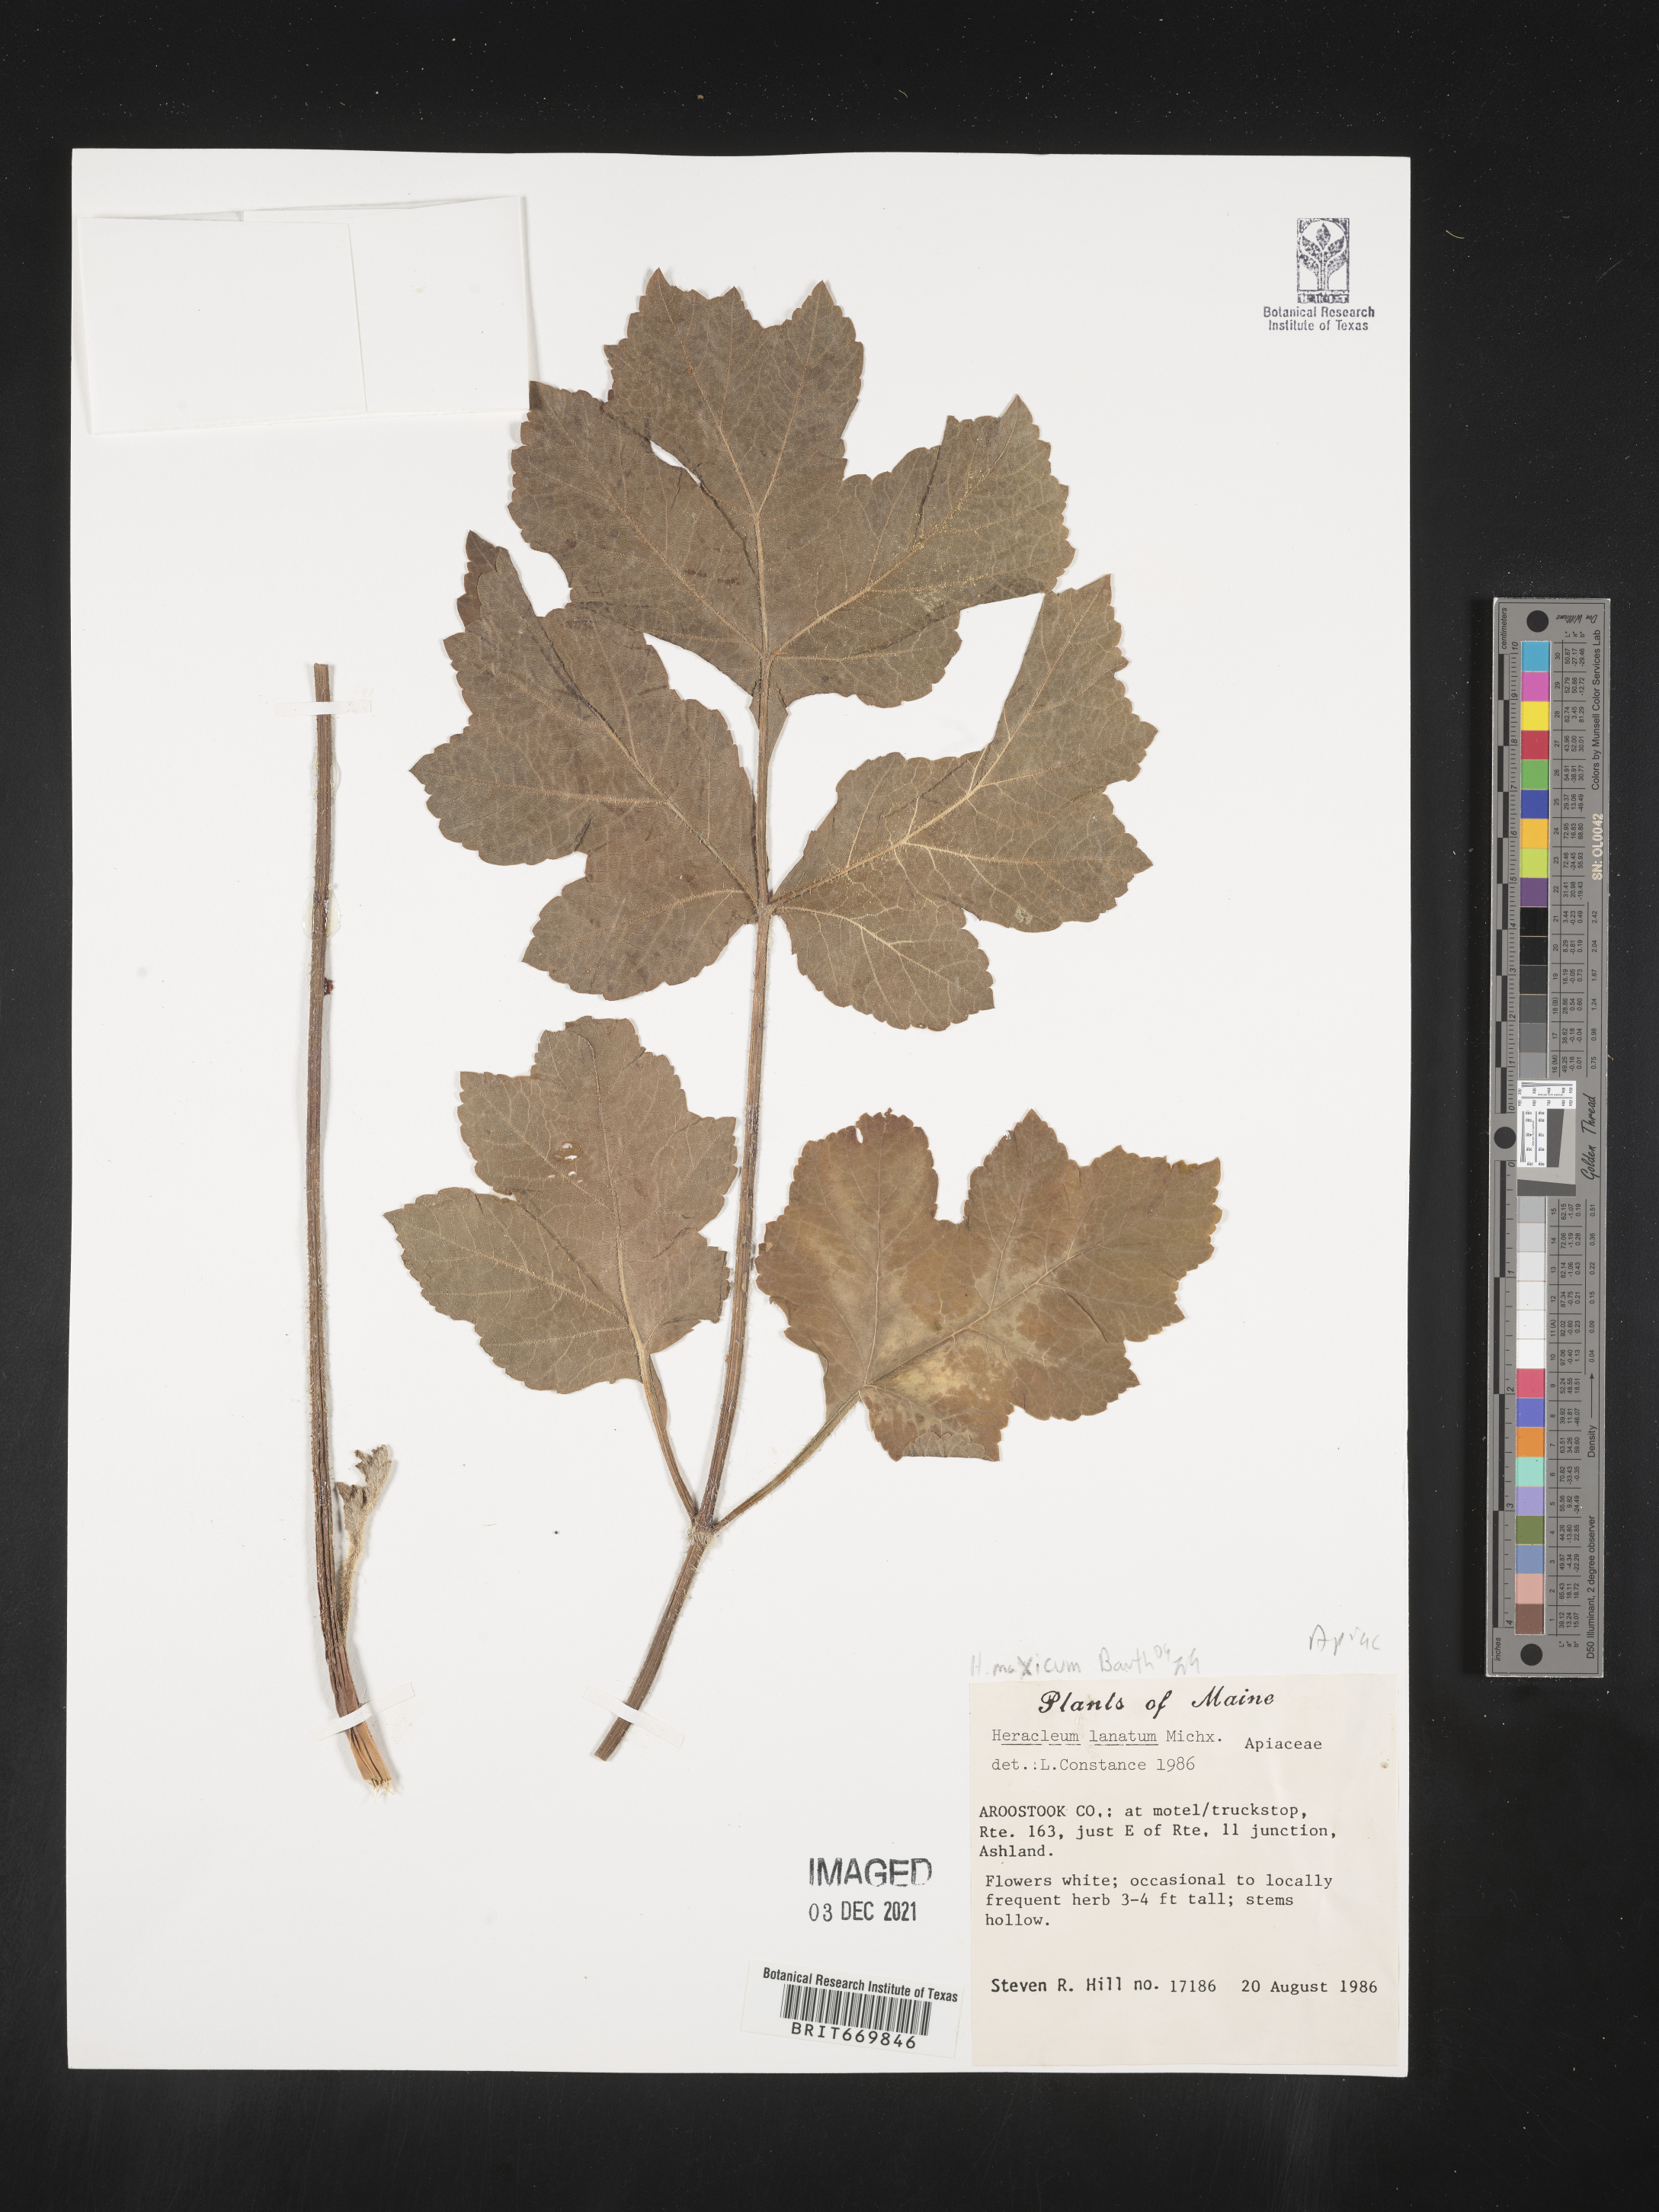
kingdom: Plantae
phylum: Tracheophyta
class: Magnoliopsida
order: Apiales
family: Apiaceae
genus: Heracleum
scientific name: Heracleum
